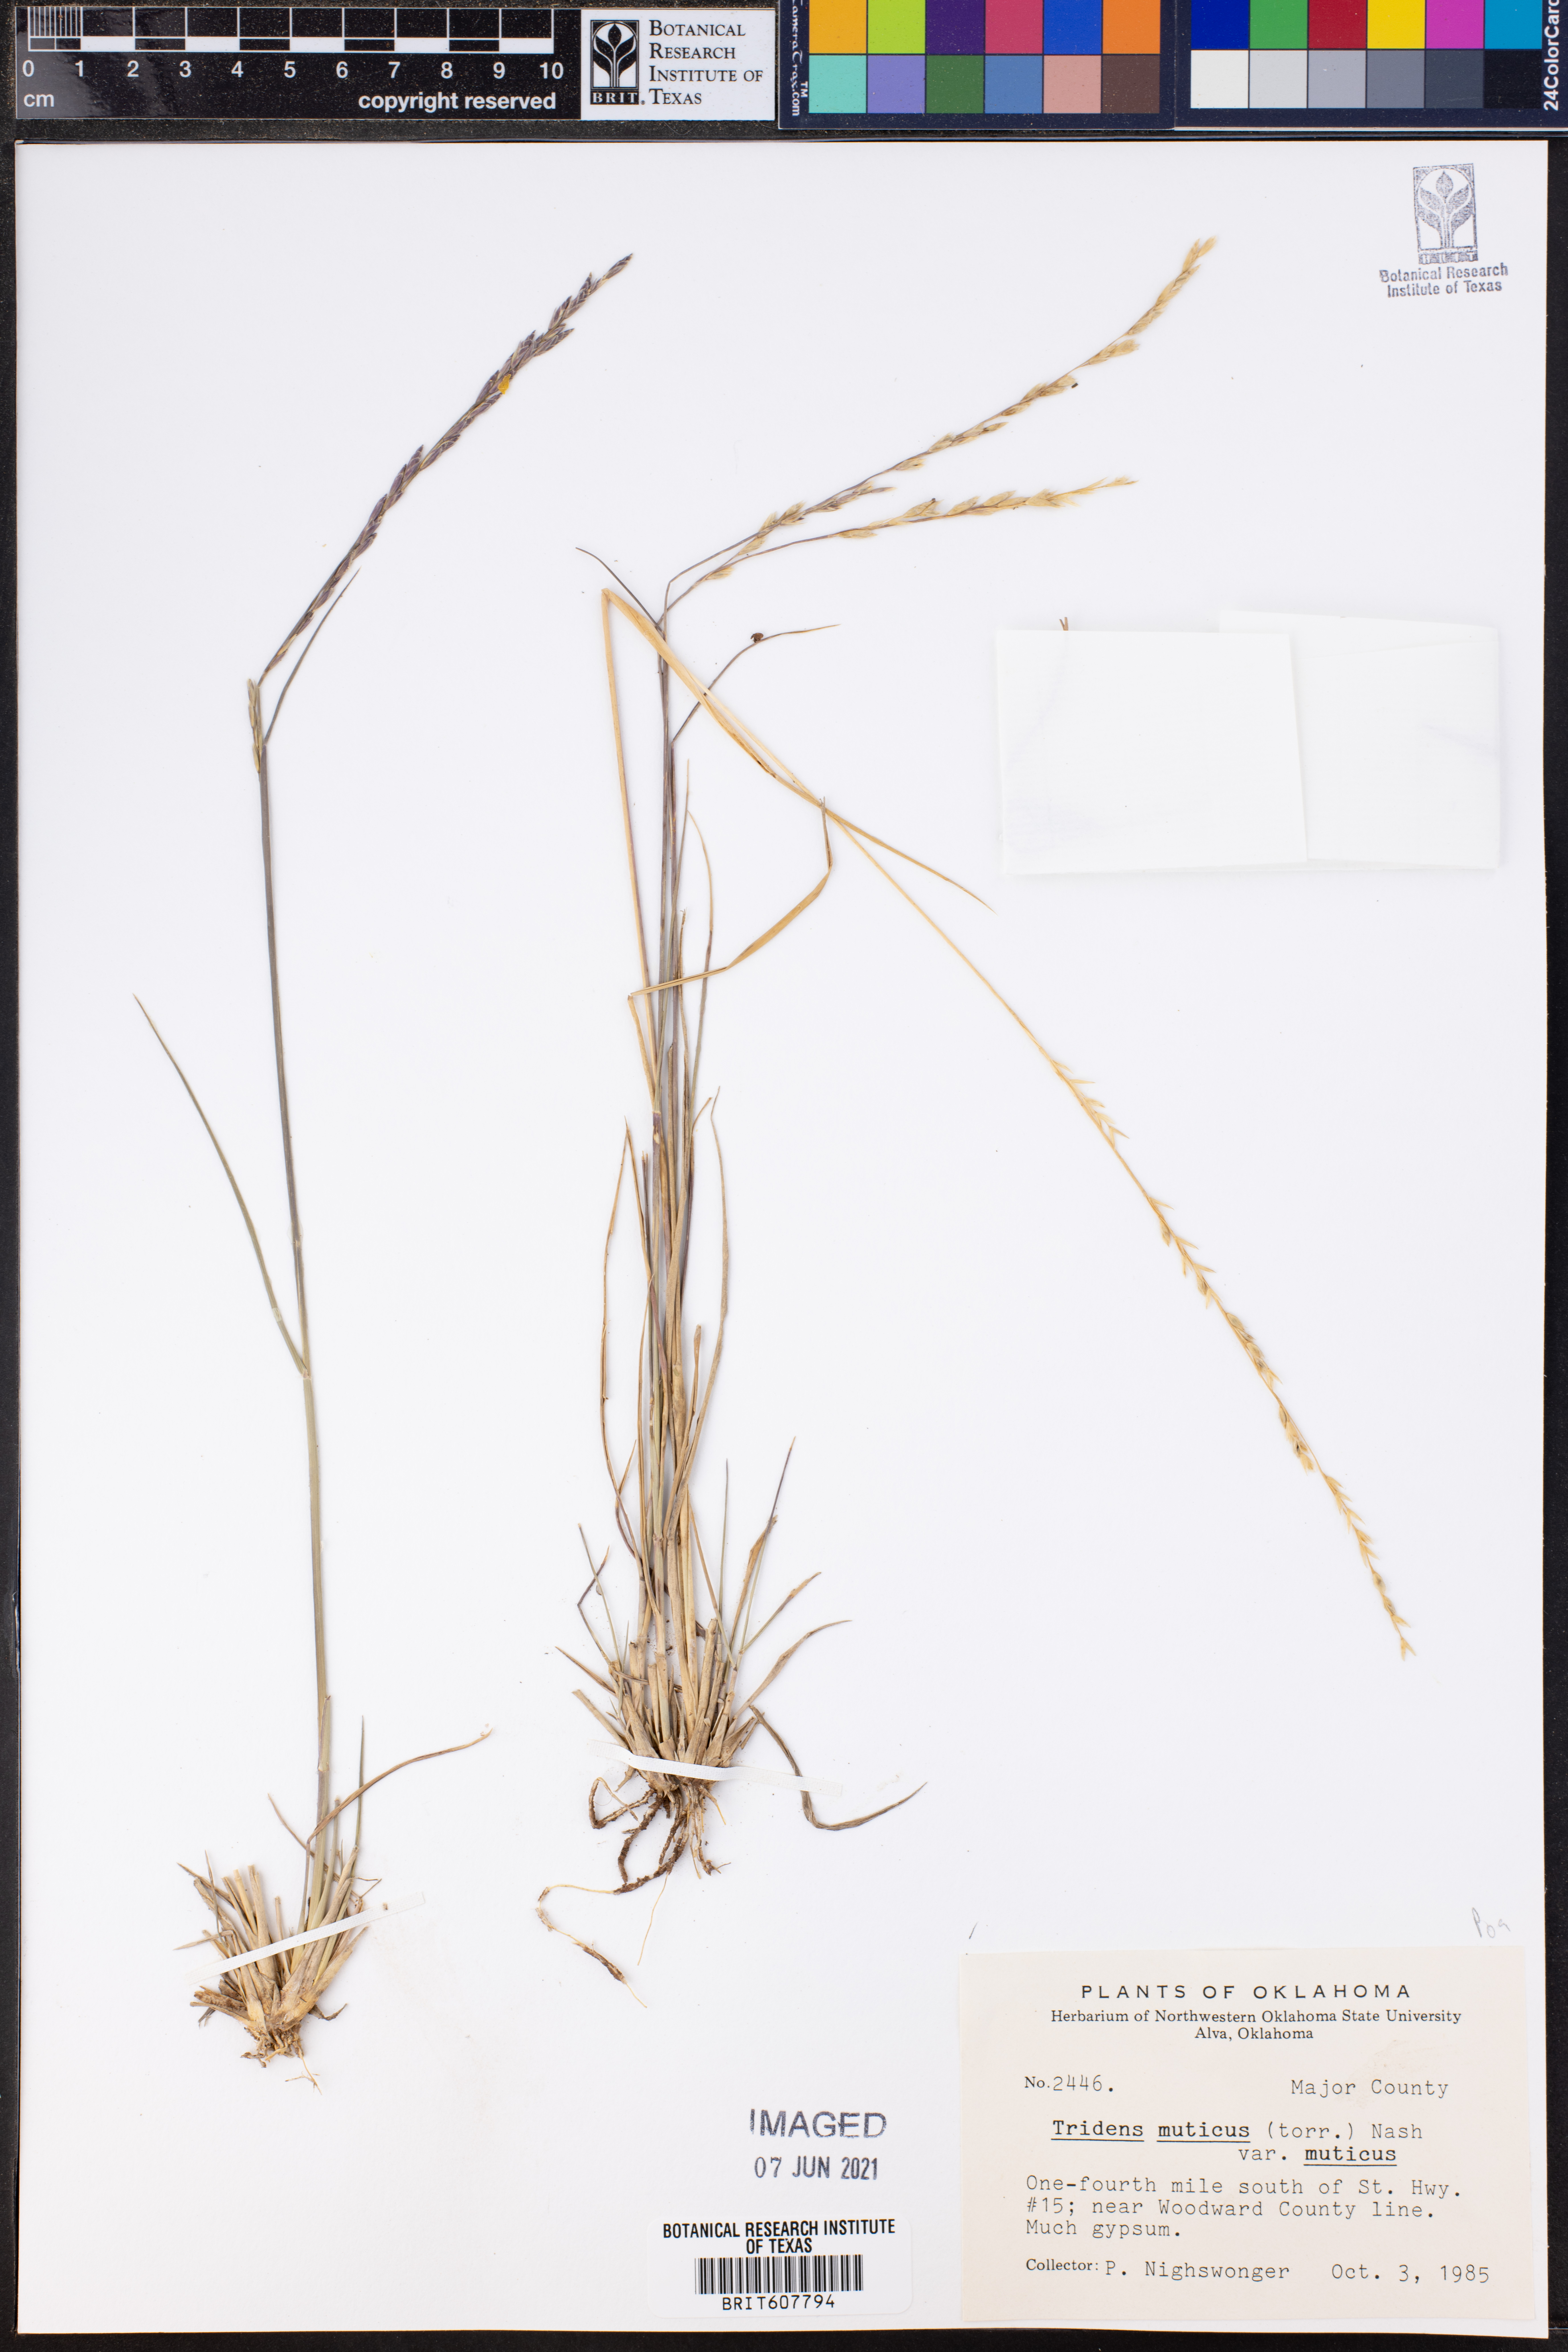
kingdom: Plantae
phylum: Tracheophyta
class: Liliopsida
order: Poales
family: Poaceae
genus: Tridentopsis
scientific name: Tridentopsis mutica
